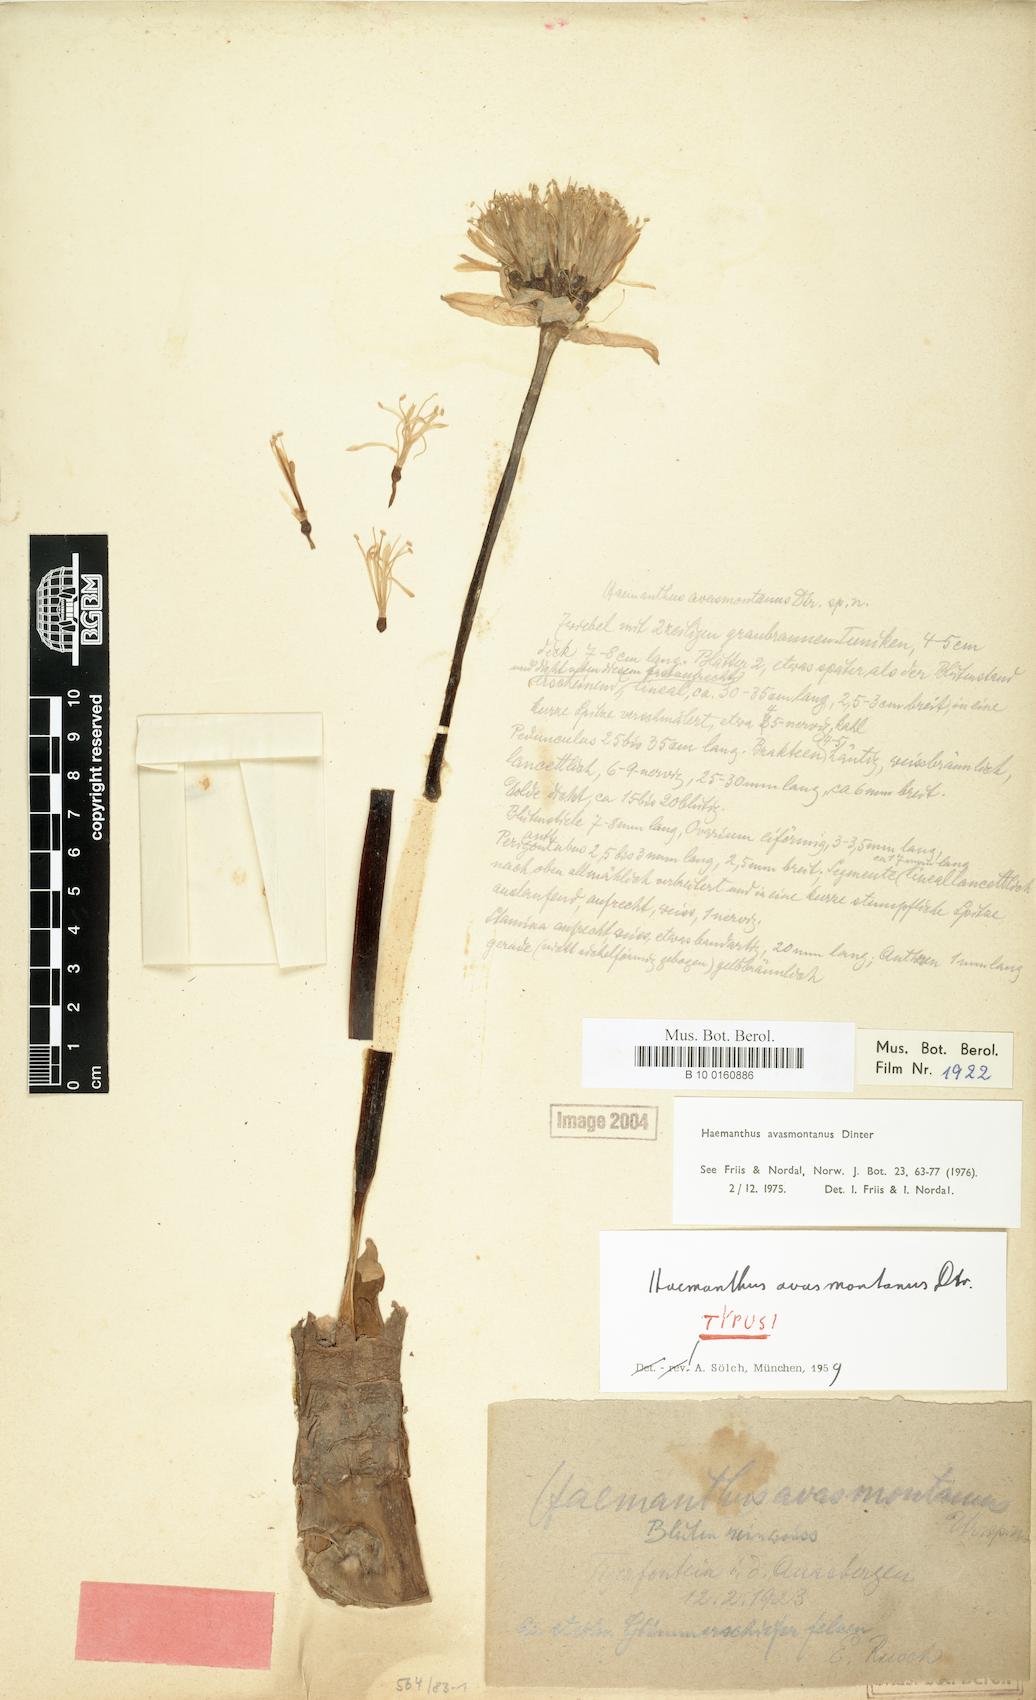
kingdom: Plantae
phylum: Tracheophyta
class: Liliopsida
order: Asparagales
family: Amaryllidaceae
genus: Haemanthus
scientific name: Haemanthus avasmontanus
